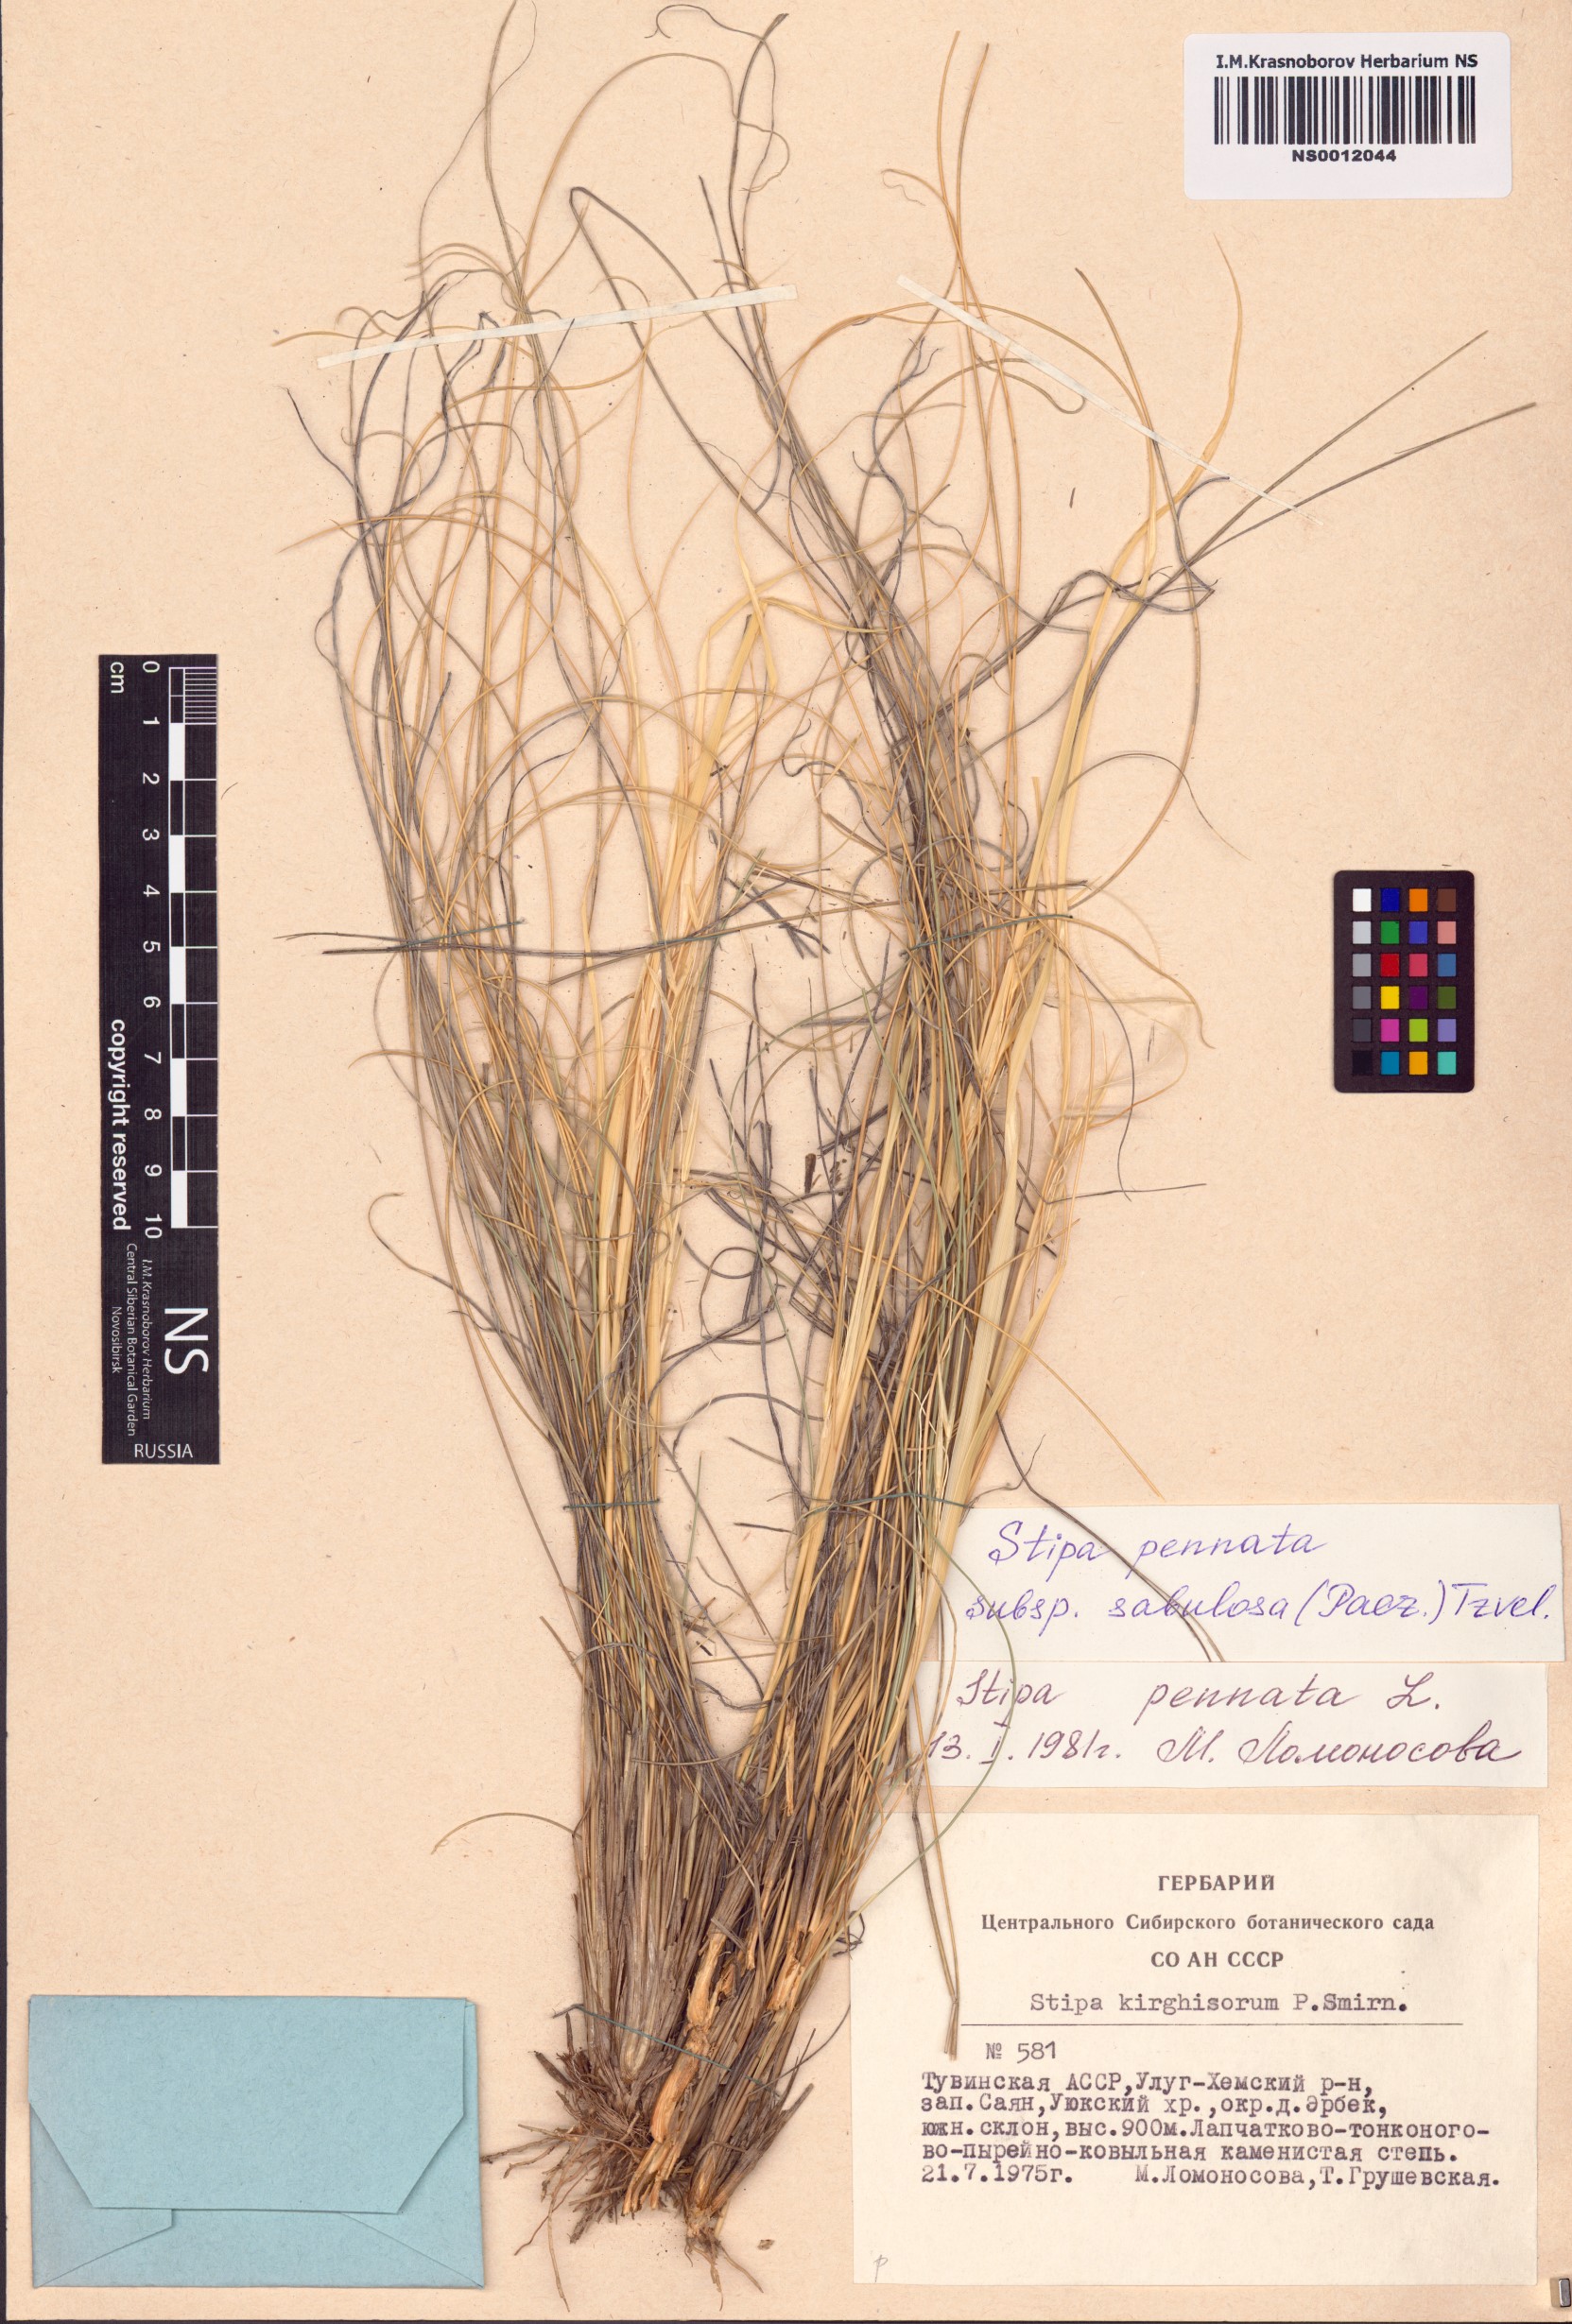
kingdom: Plantae
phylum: Tracheophyta
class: Liliopsida
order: Poales
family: Poaceae
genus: Stipa
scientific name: Stipa borysthenica
